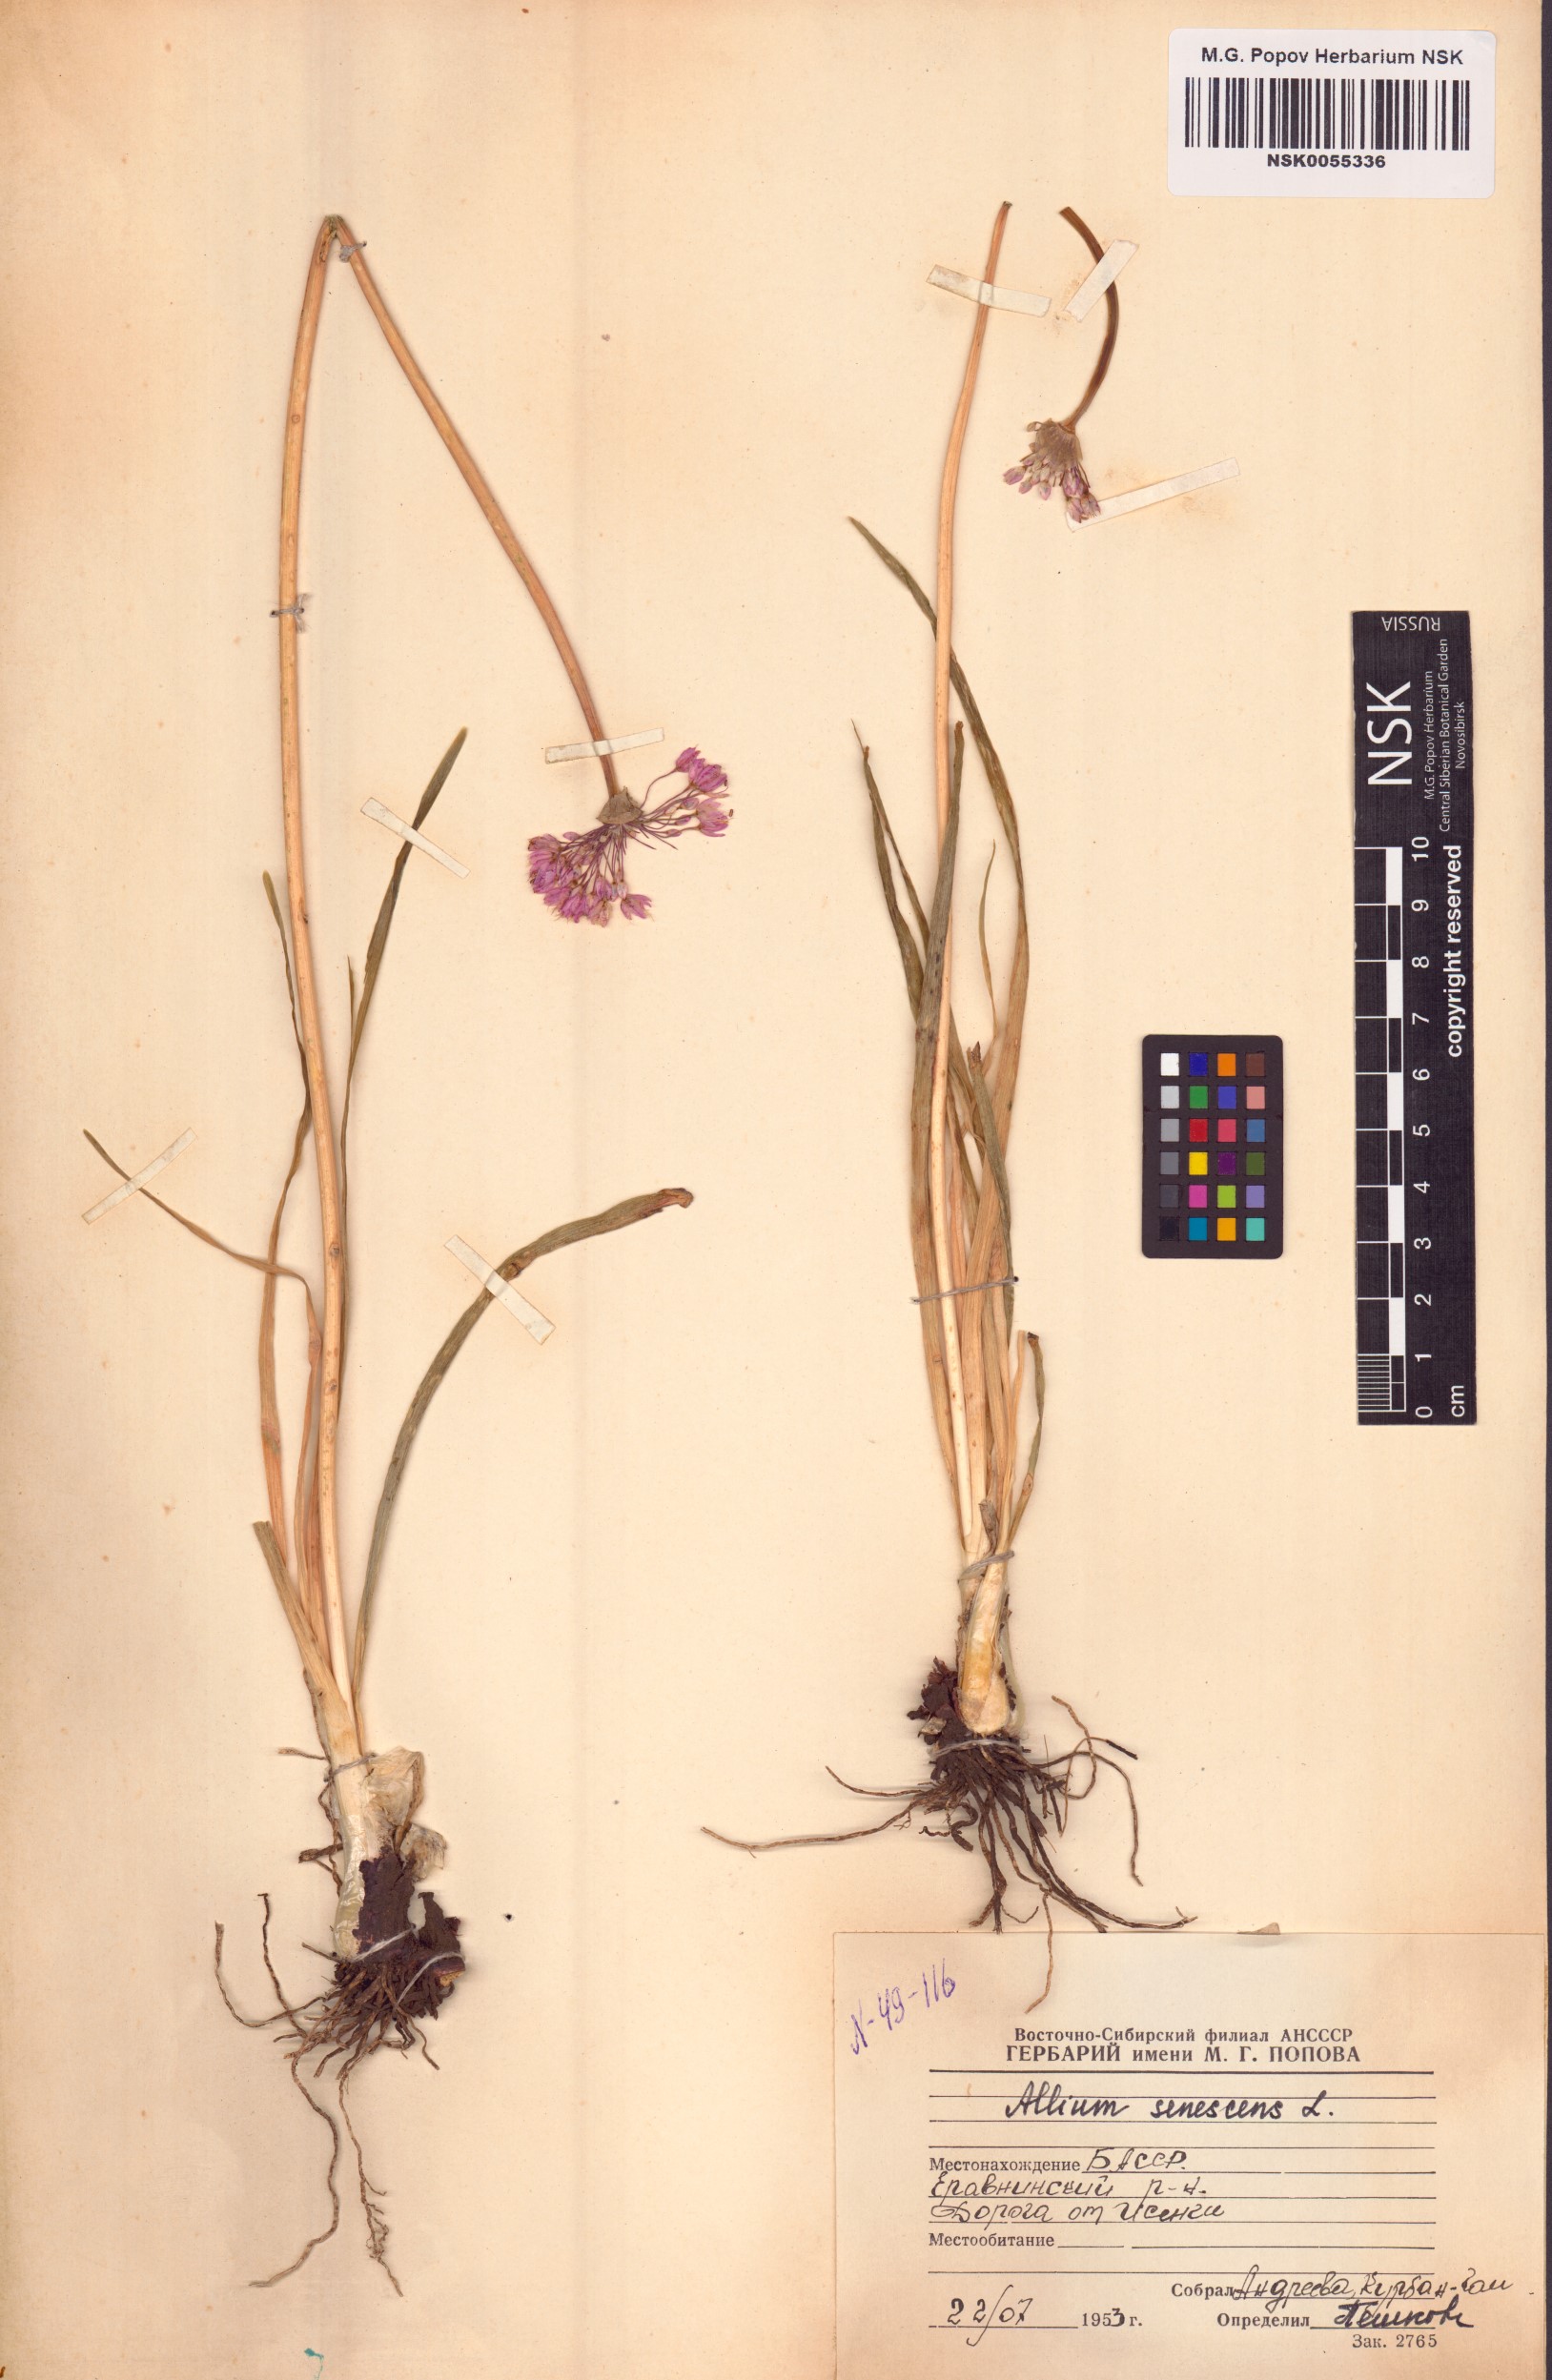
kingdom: Plantae
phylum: Tracheophyta
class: Liliopsida
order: Asparagales
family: Amaryllidaceae
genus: Allium
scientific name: Allium senescens
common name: German garlic
